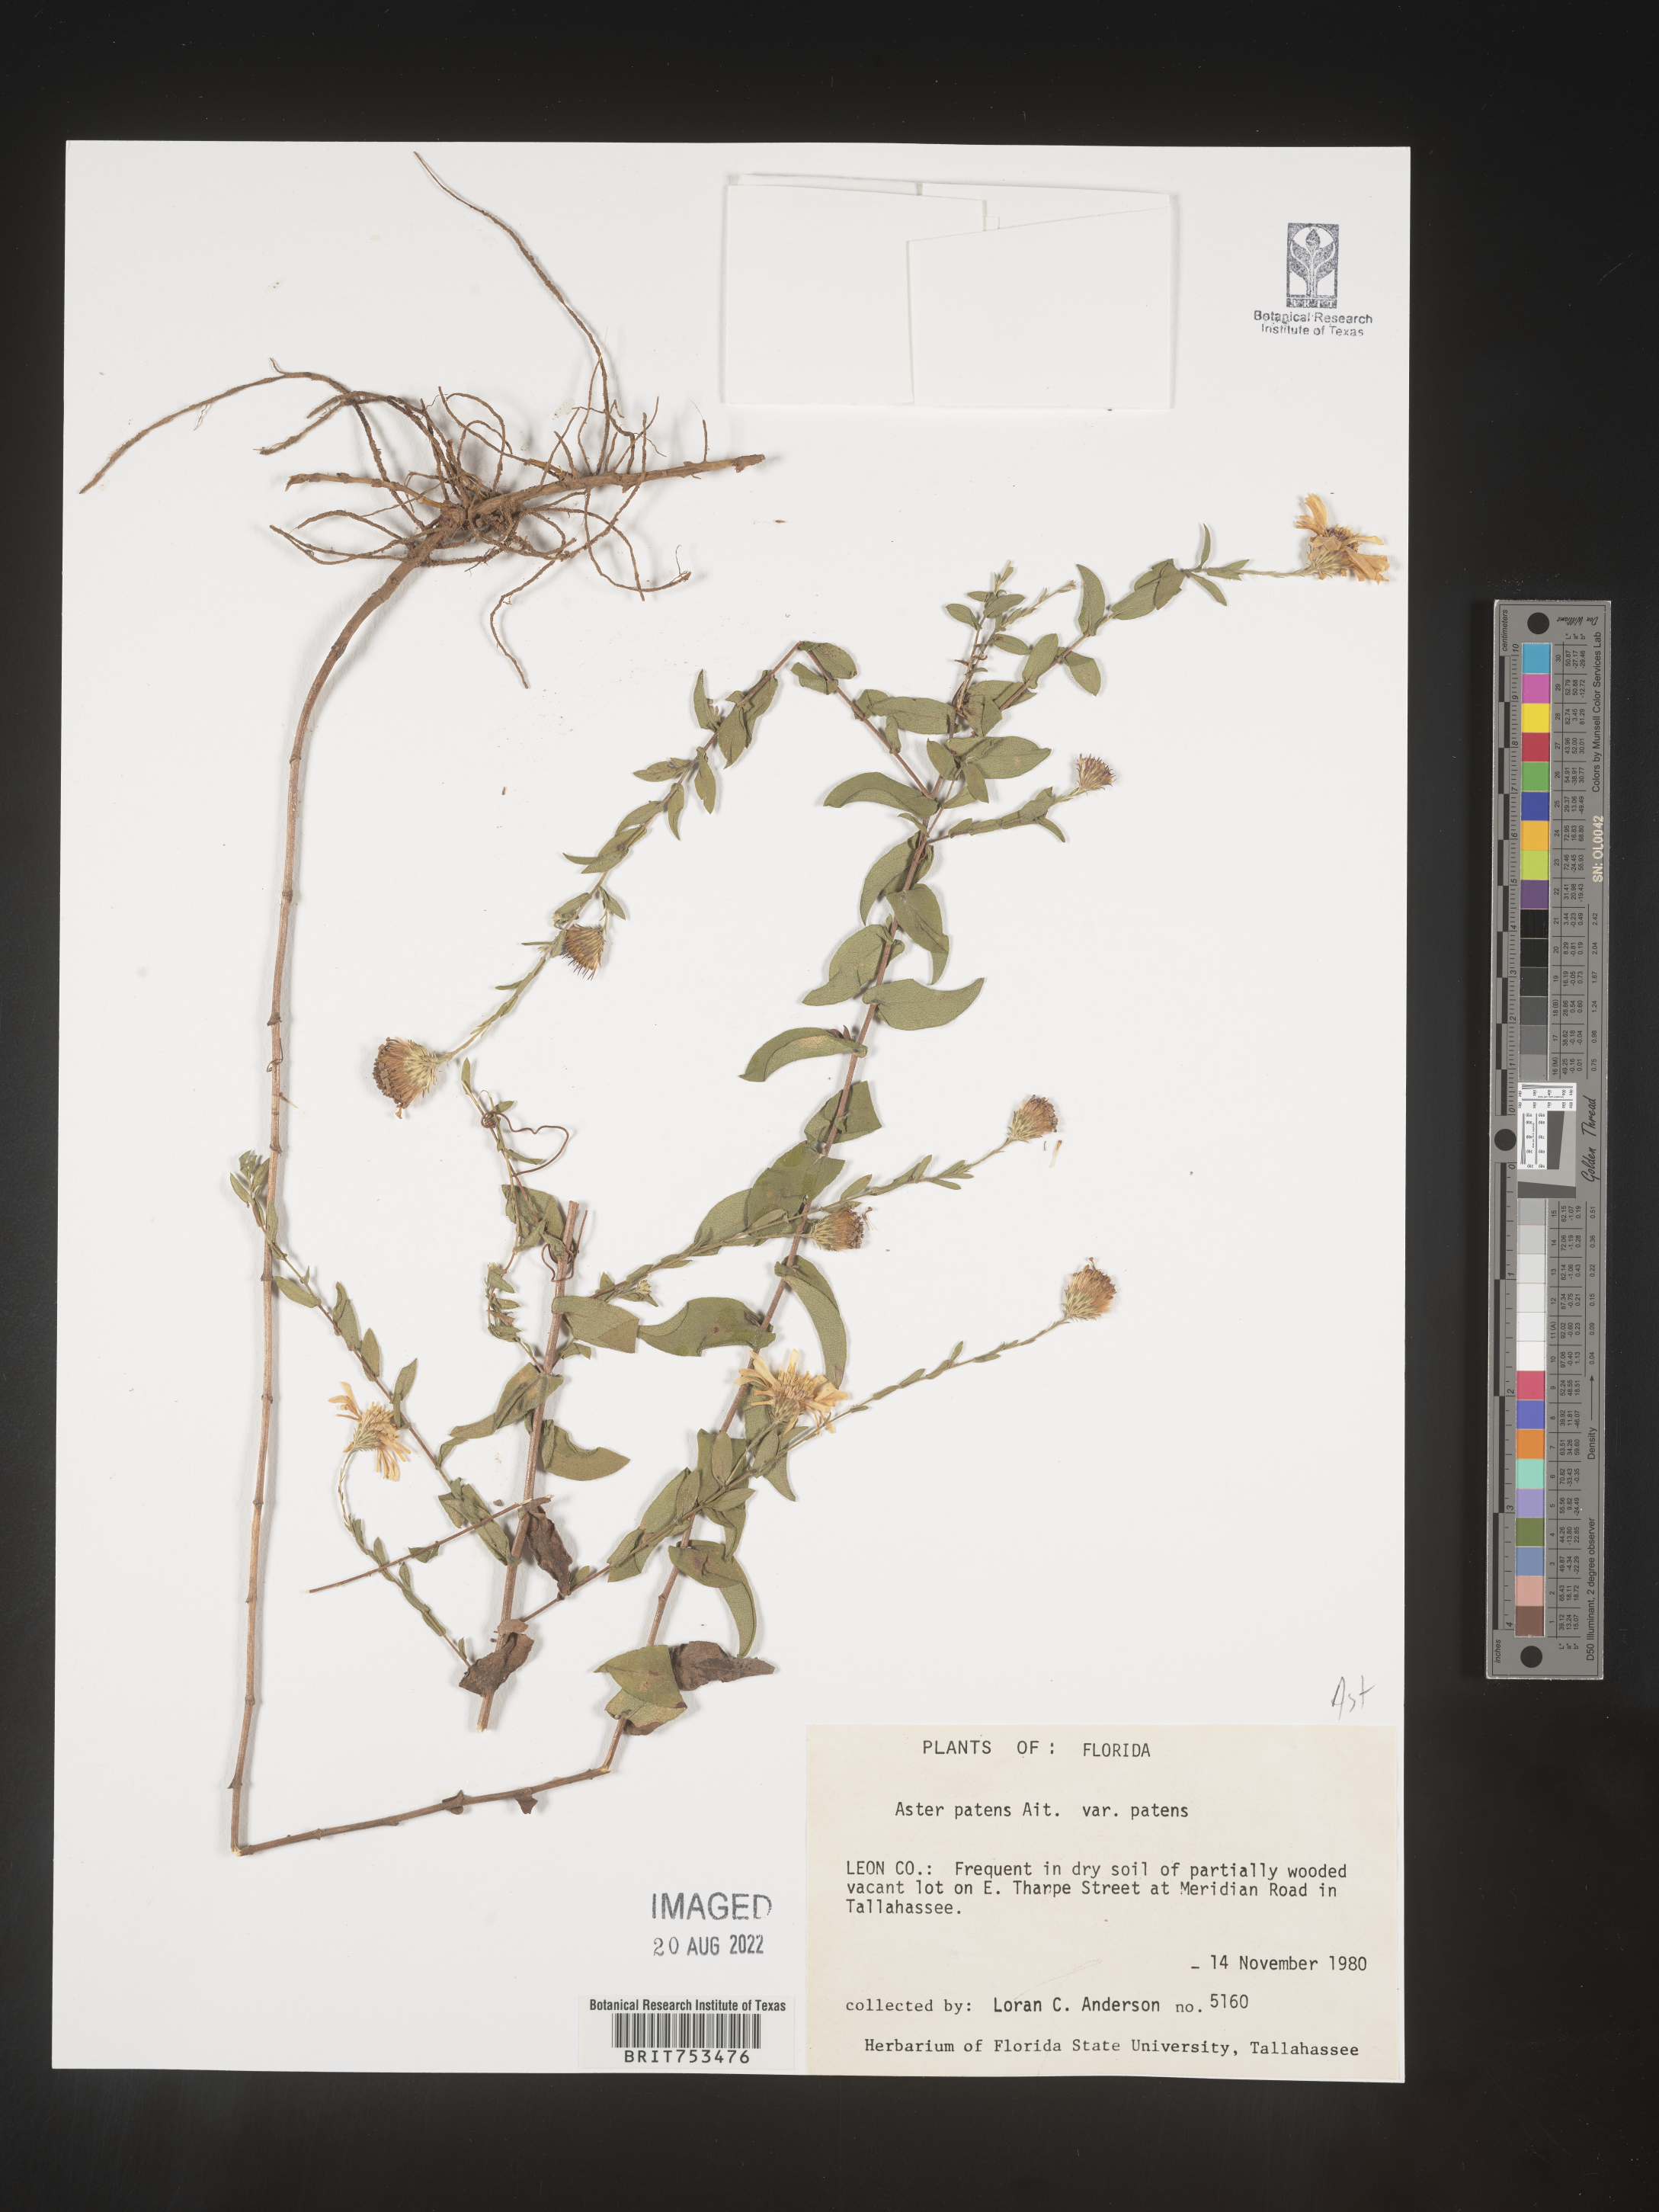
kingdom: Plantae
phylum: Tracheophyta
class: Magnoliopsida
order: Asterales
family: Asteraceae
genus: Symphyotrichum
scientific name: Symphyotrichum patens
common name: Late purple aster
